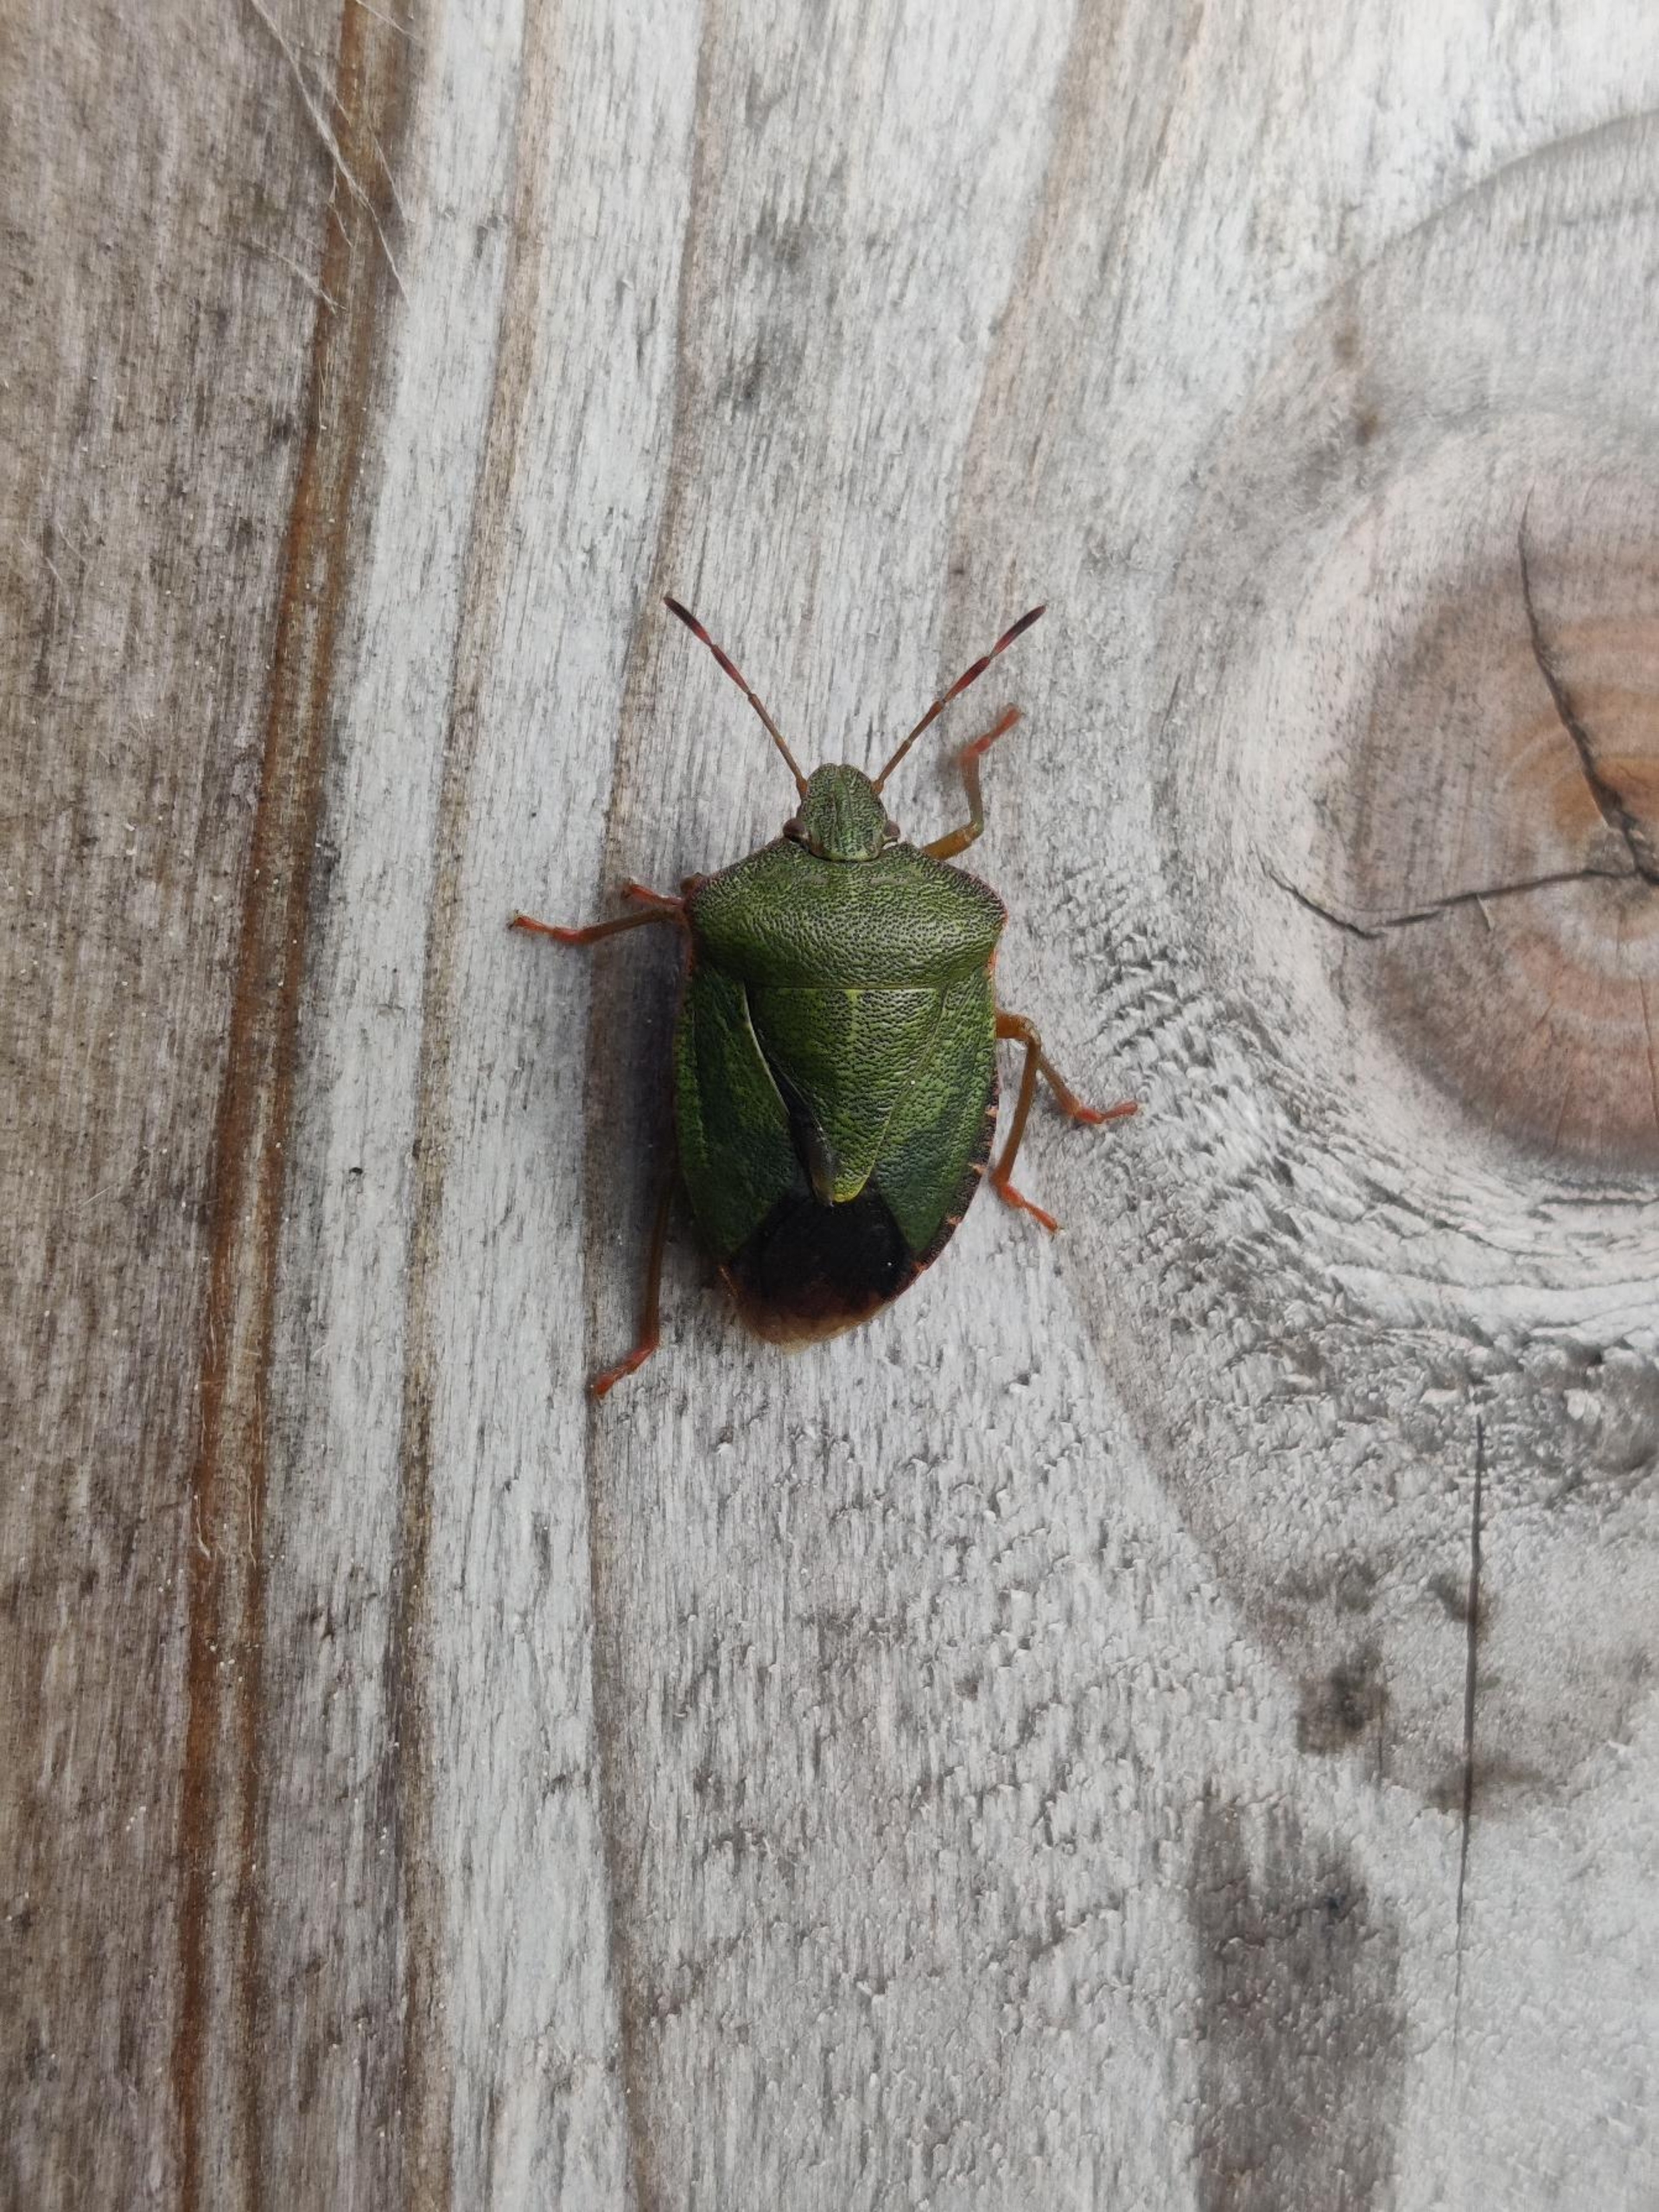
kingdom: Animalia
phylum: Arthropoda
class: Insecta
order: Hemiptera
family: Pentatomidae
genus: Palomena
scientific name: Palomena prasina
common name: Grøn bredtæge
